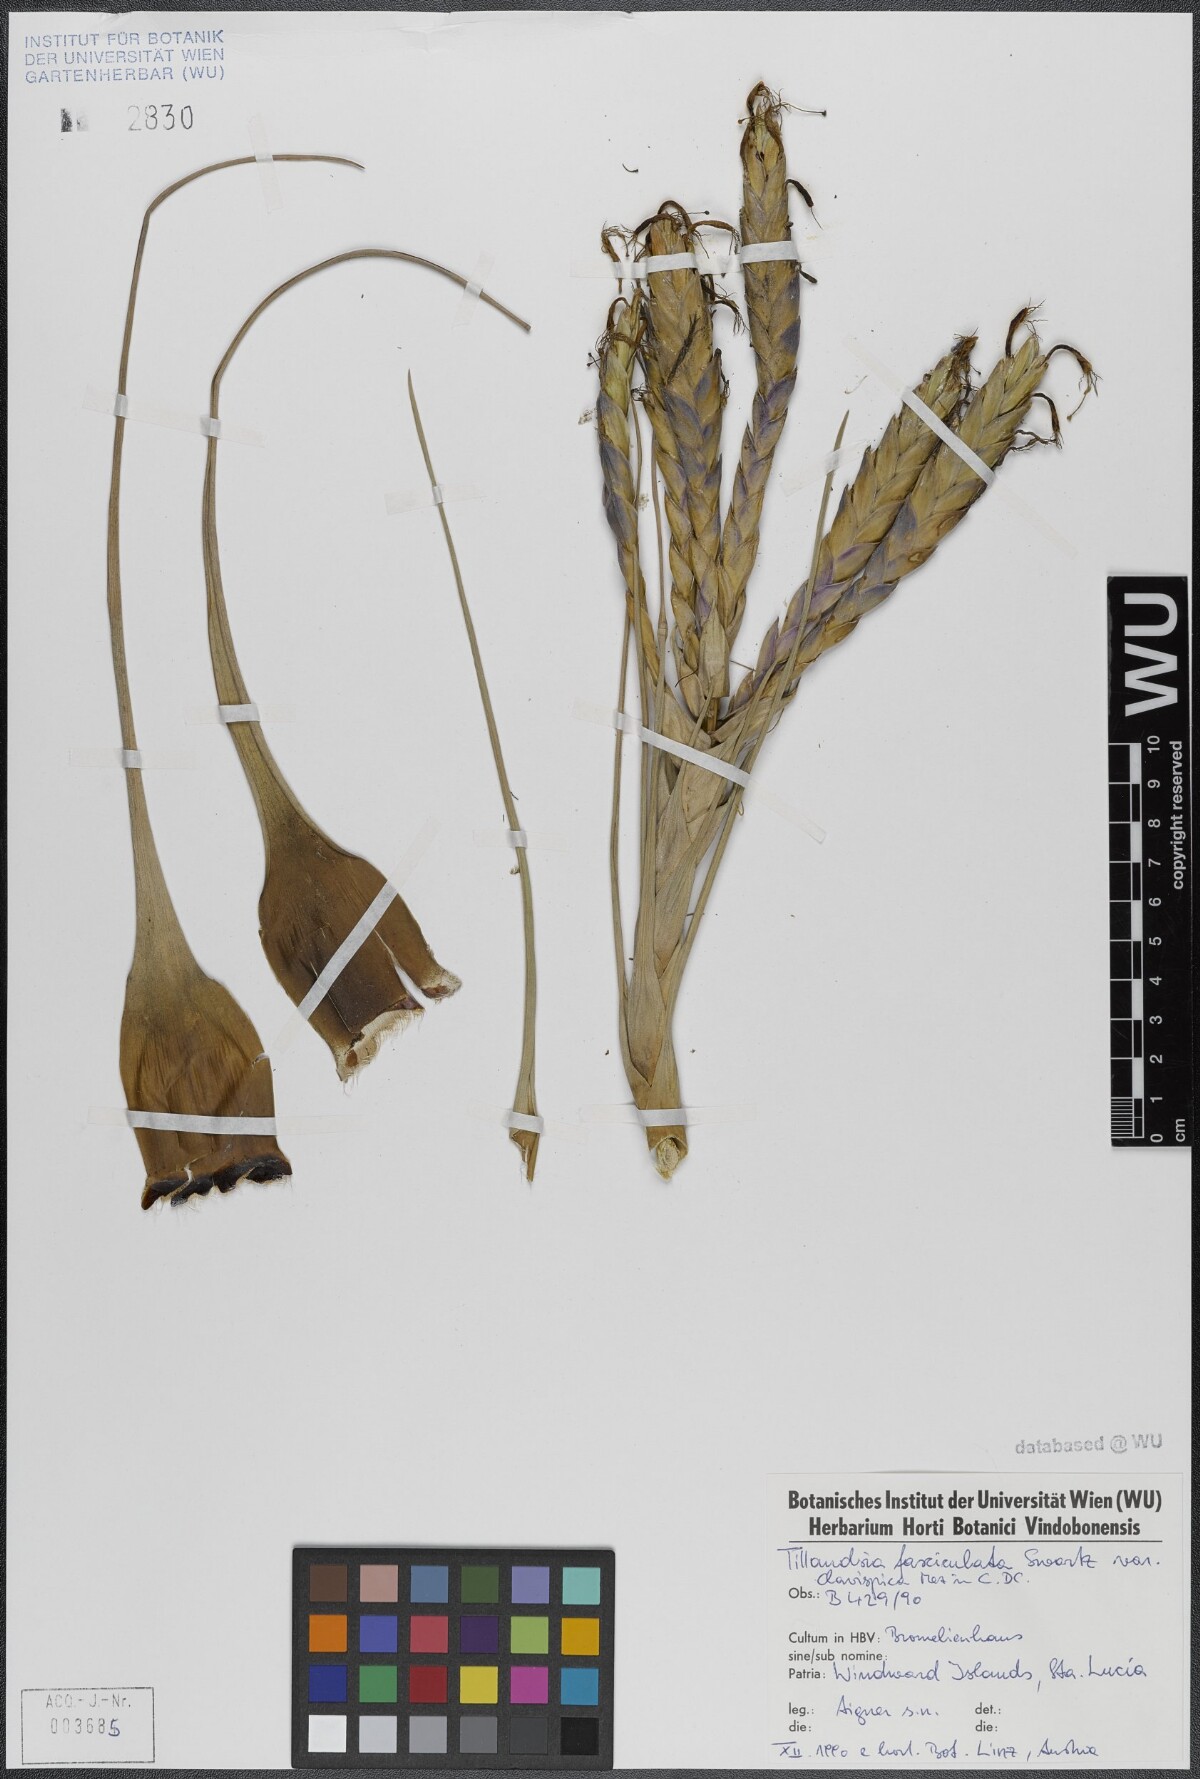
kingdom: Plantae
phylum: Tracheophyta
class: Liliopsida
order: Poales
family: Bromeliaceae
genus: Tillandsia
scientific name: Tillandsia fasciculata
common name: Giant airplant
